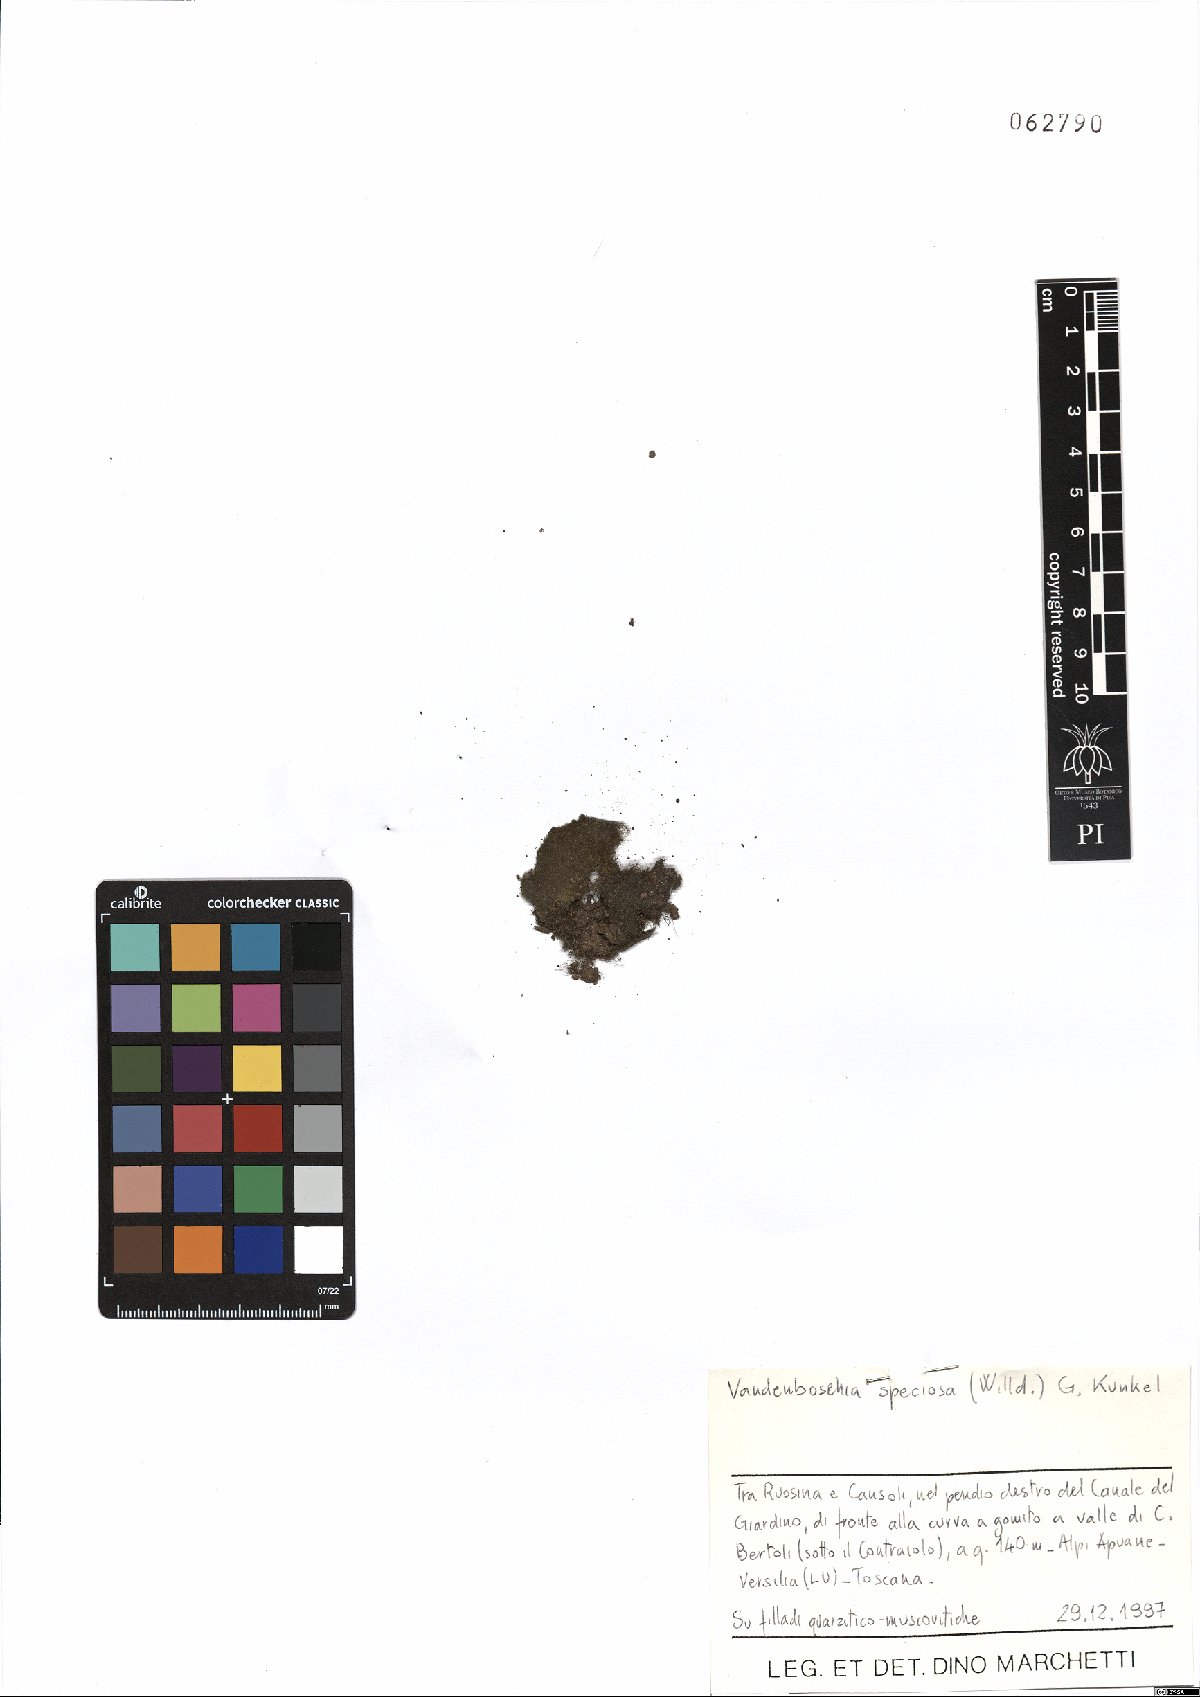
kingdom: Plantae
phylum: Tracheophyta
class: Polypodiopsida
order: Hymenophyllales
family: Hymenophyllaceae
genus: Vandenboschia
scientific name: Vandenboschia speciosa
